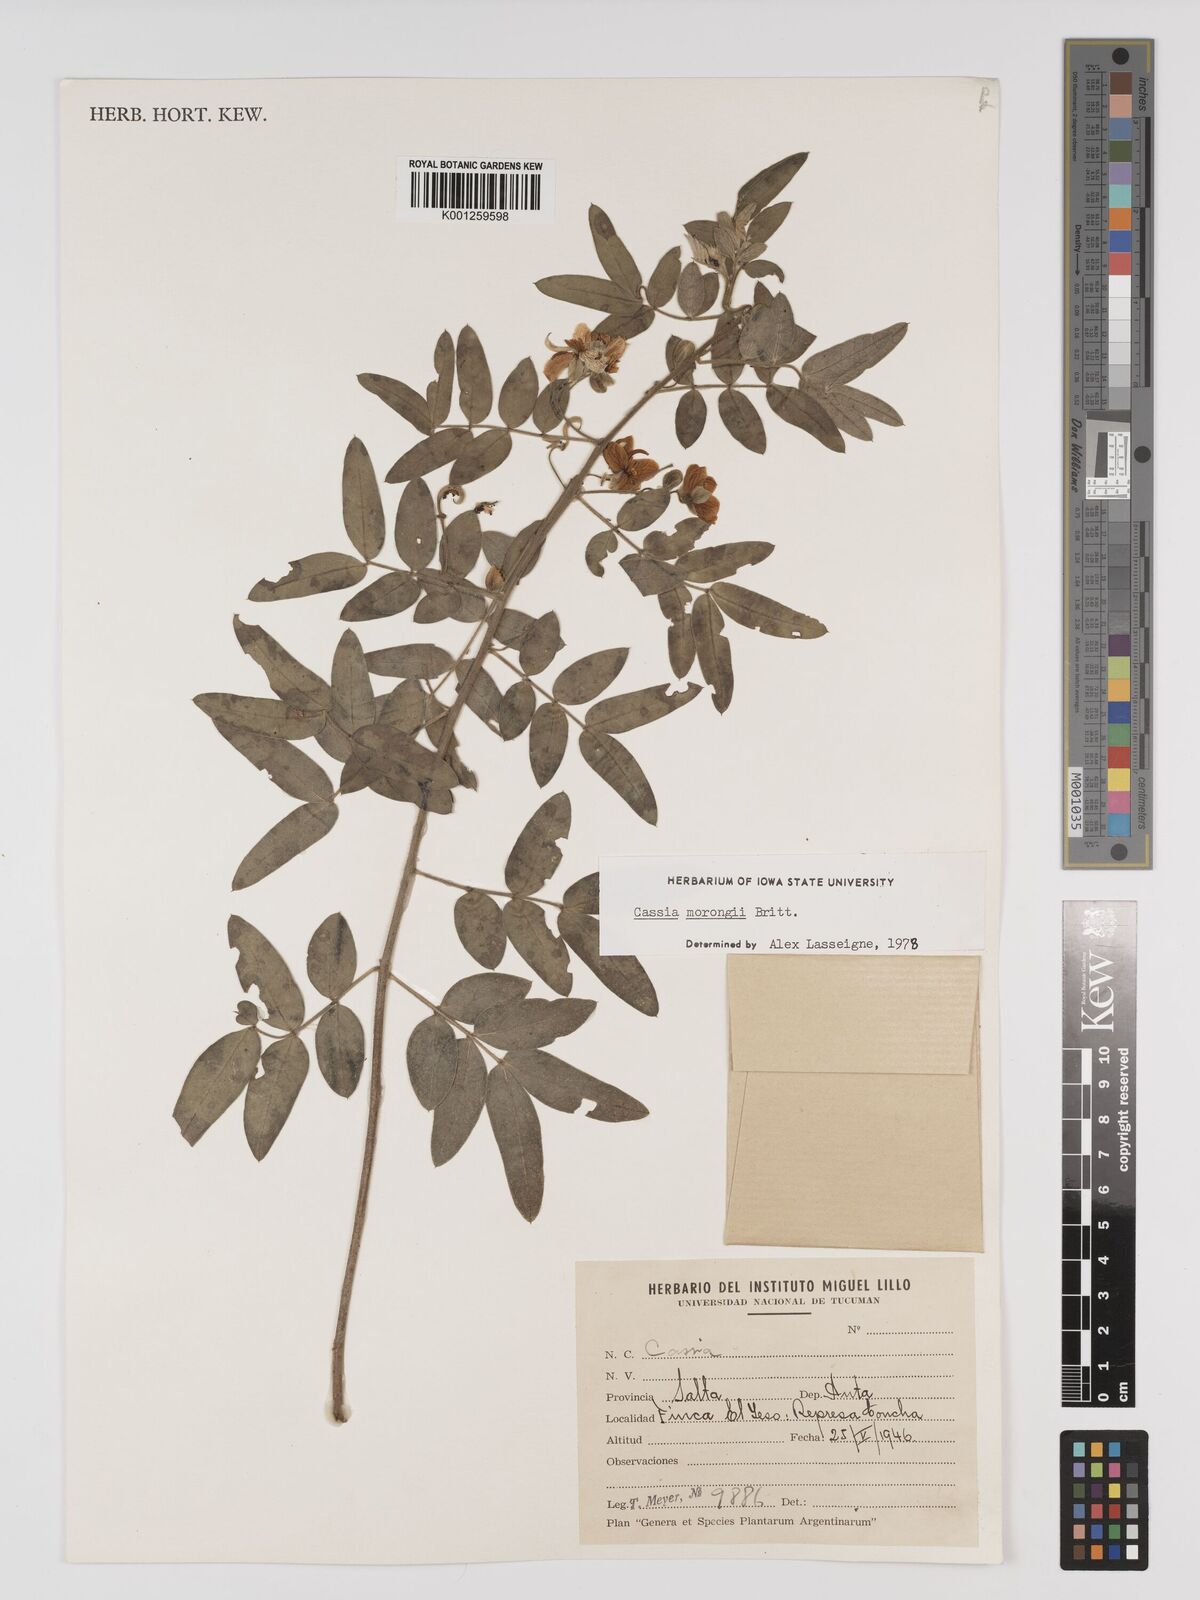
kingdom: Plantae
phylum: Tracheophyta
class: Magnoliopsida
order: Fabales
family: Fabaceae
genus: Senna
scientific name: Senna morongii
